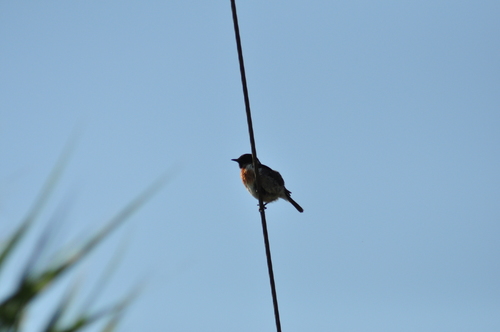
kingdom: Animalia
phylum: Chordata
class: Aves
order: Passeriformes
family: Muscicapidae
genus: Saxicola
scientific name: Saxicola rubicola
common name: European stonechat
